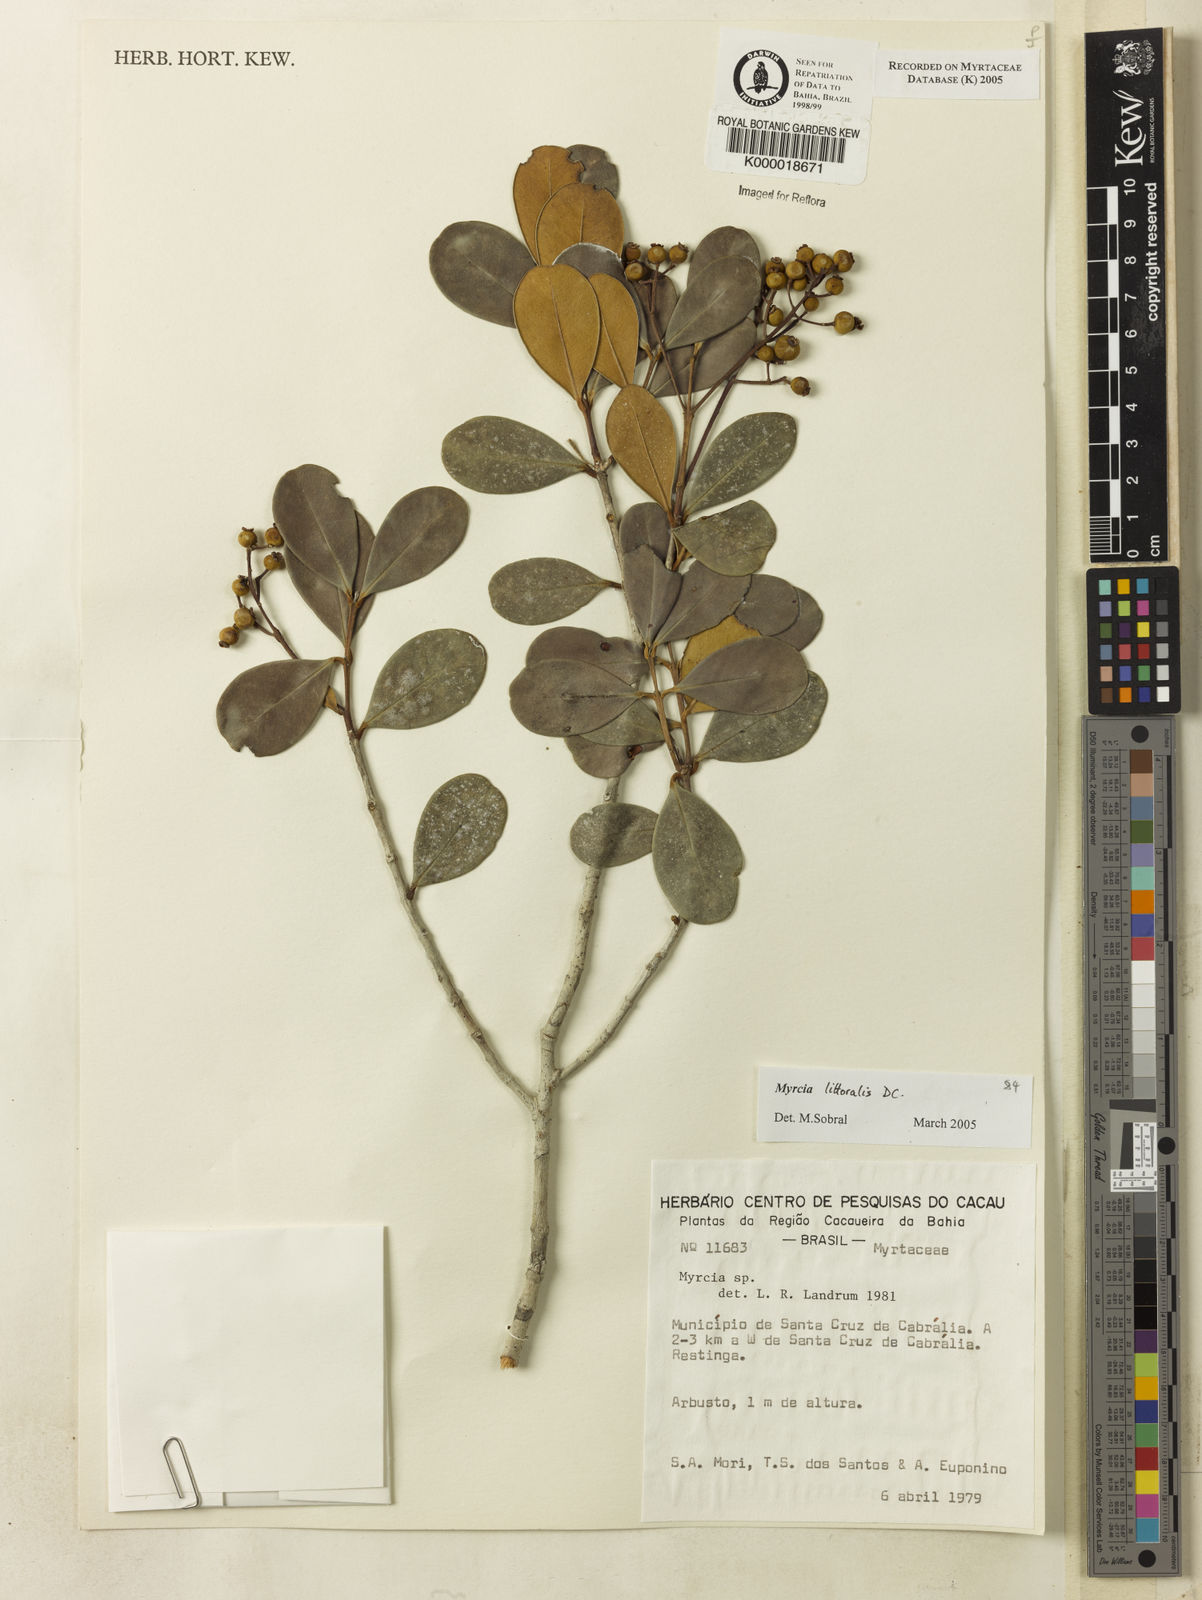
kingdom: Plantae
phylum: Tracheophyta
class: Magnoliopsida
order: Myrtales
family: Myrtaceae
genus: Myrcia
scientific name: Myrcia
